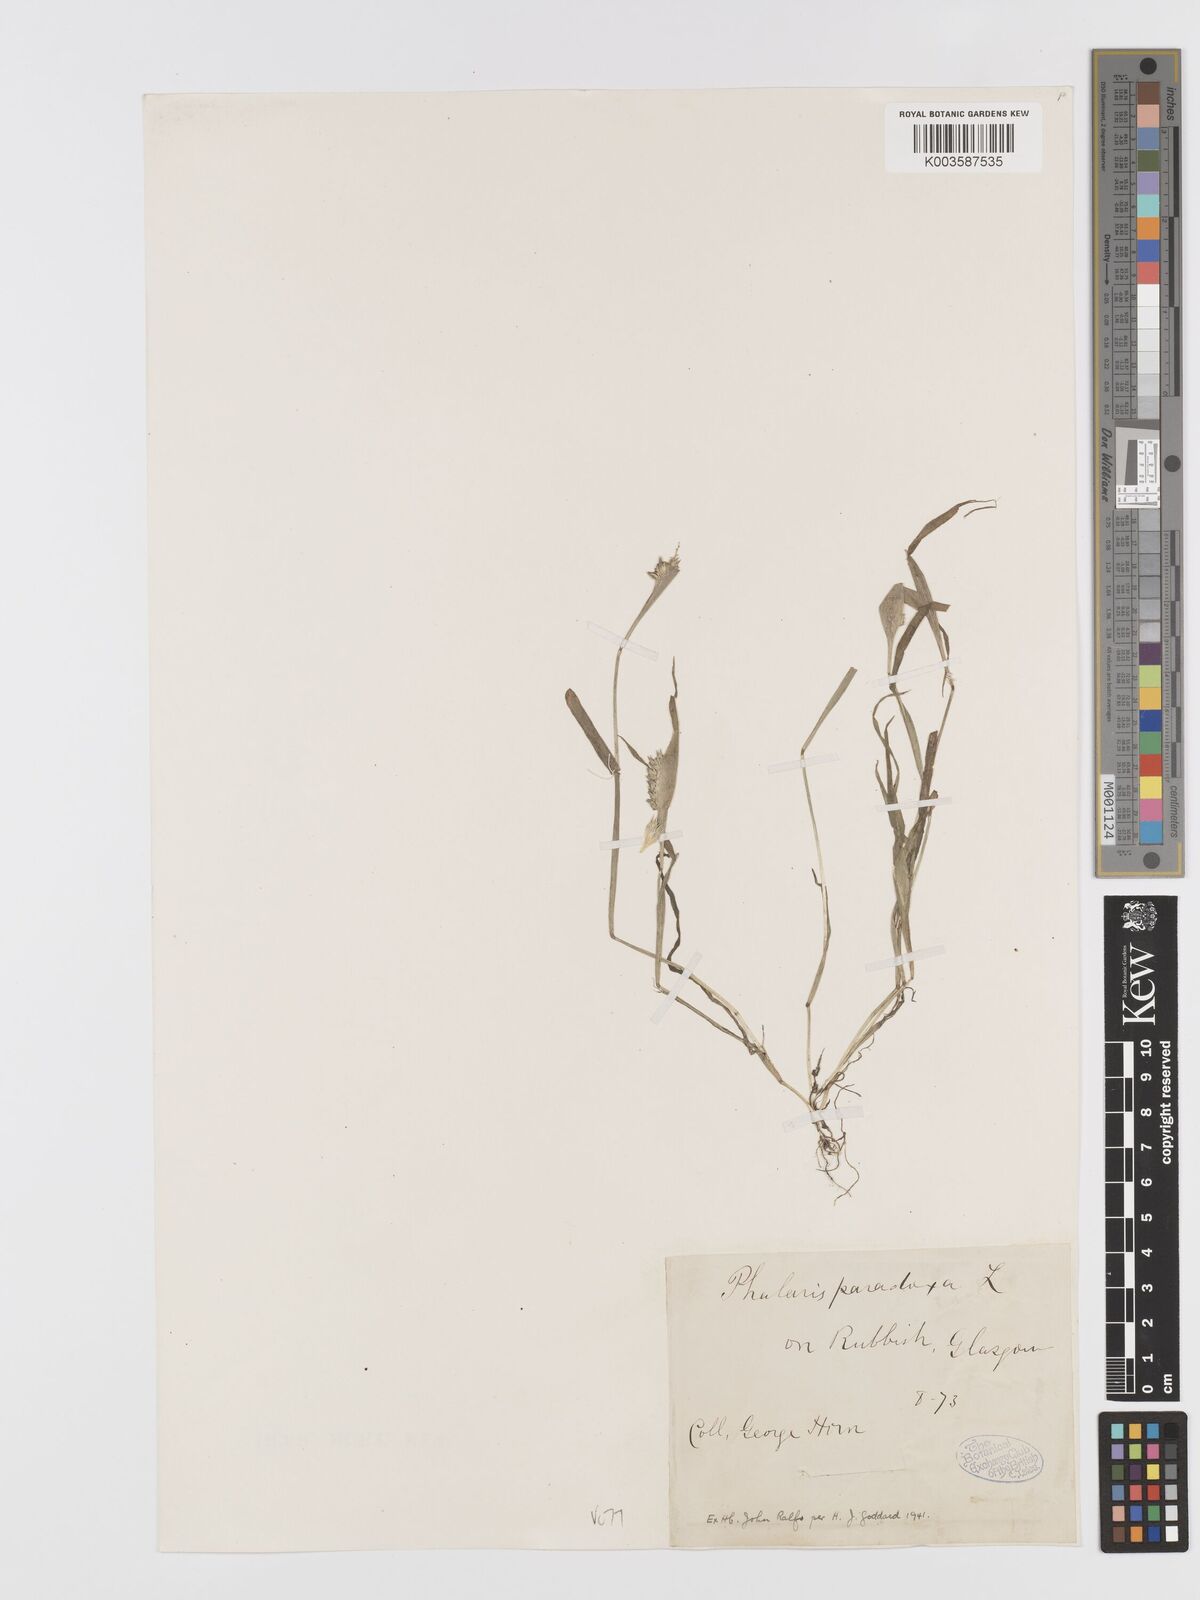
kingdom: Plantae
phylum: Tracheophyta
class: Liliopsida
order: Poales
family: Poaceae
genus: Phalaris
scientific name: Phalaris paradoxa
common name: Awned canary-grass
